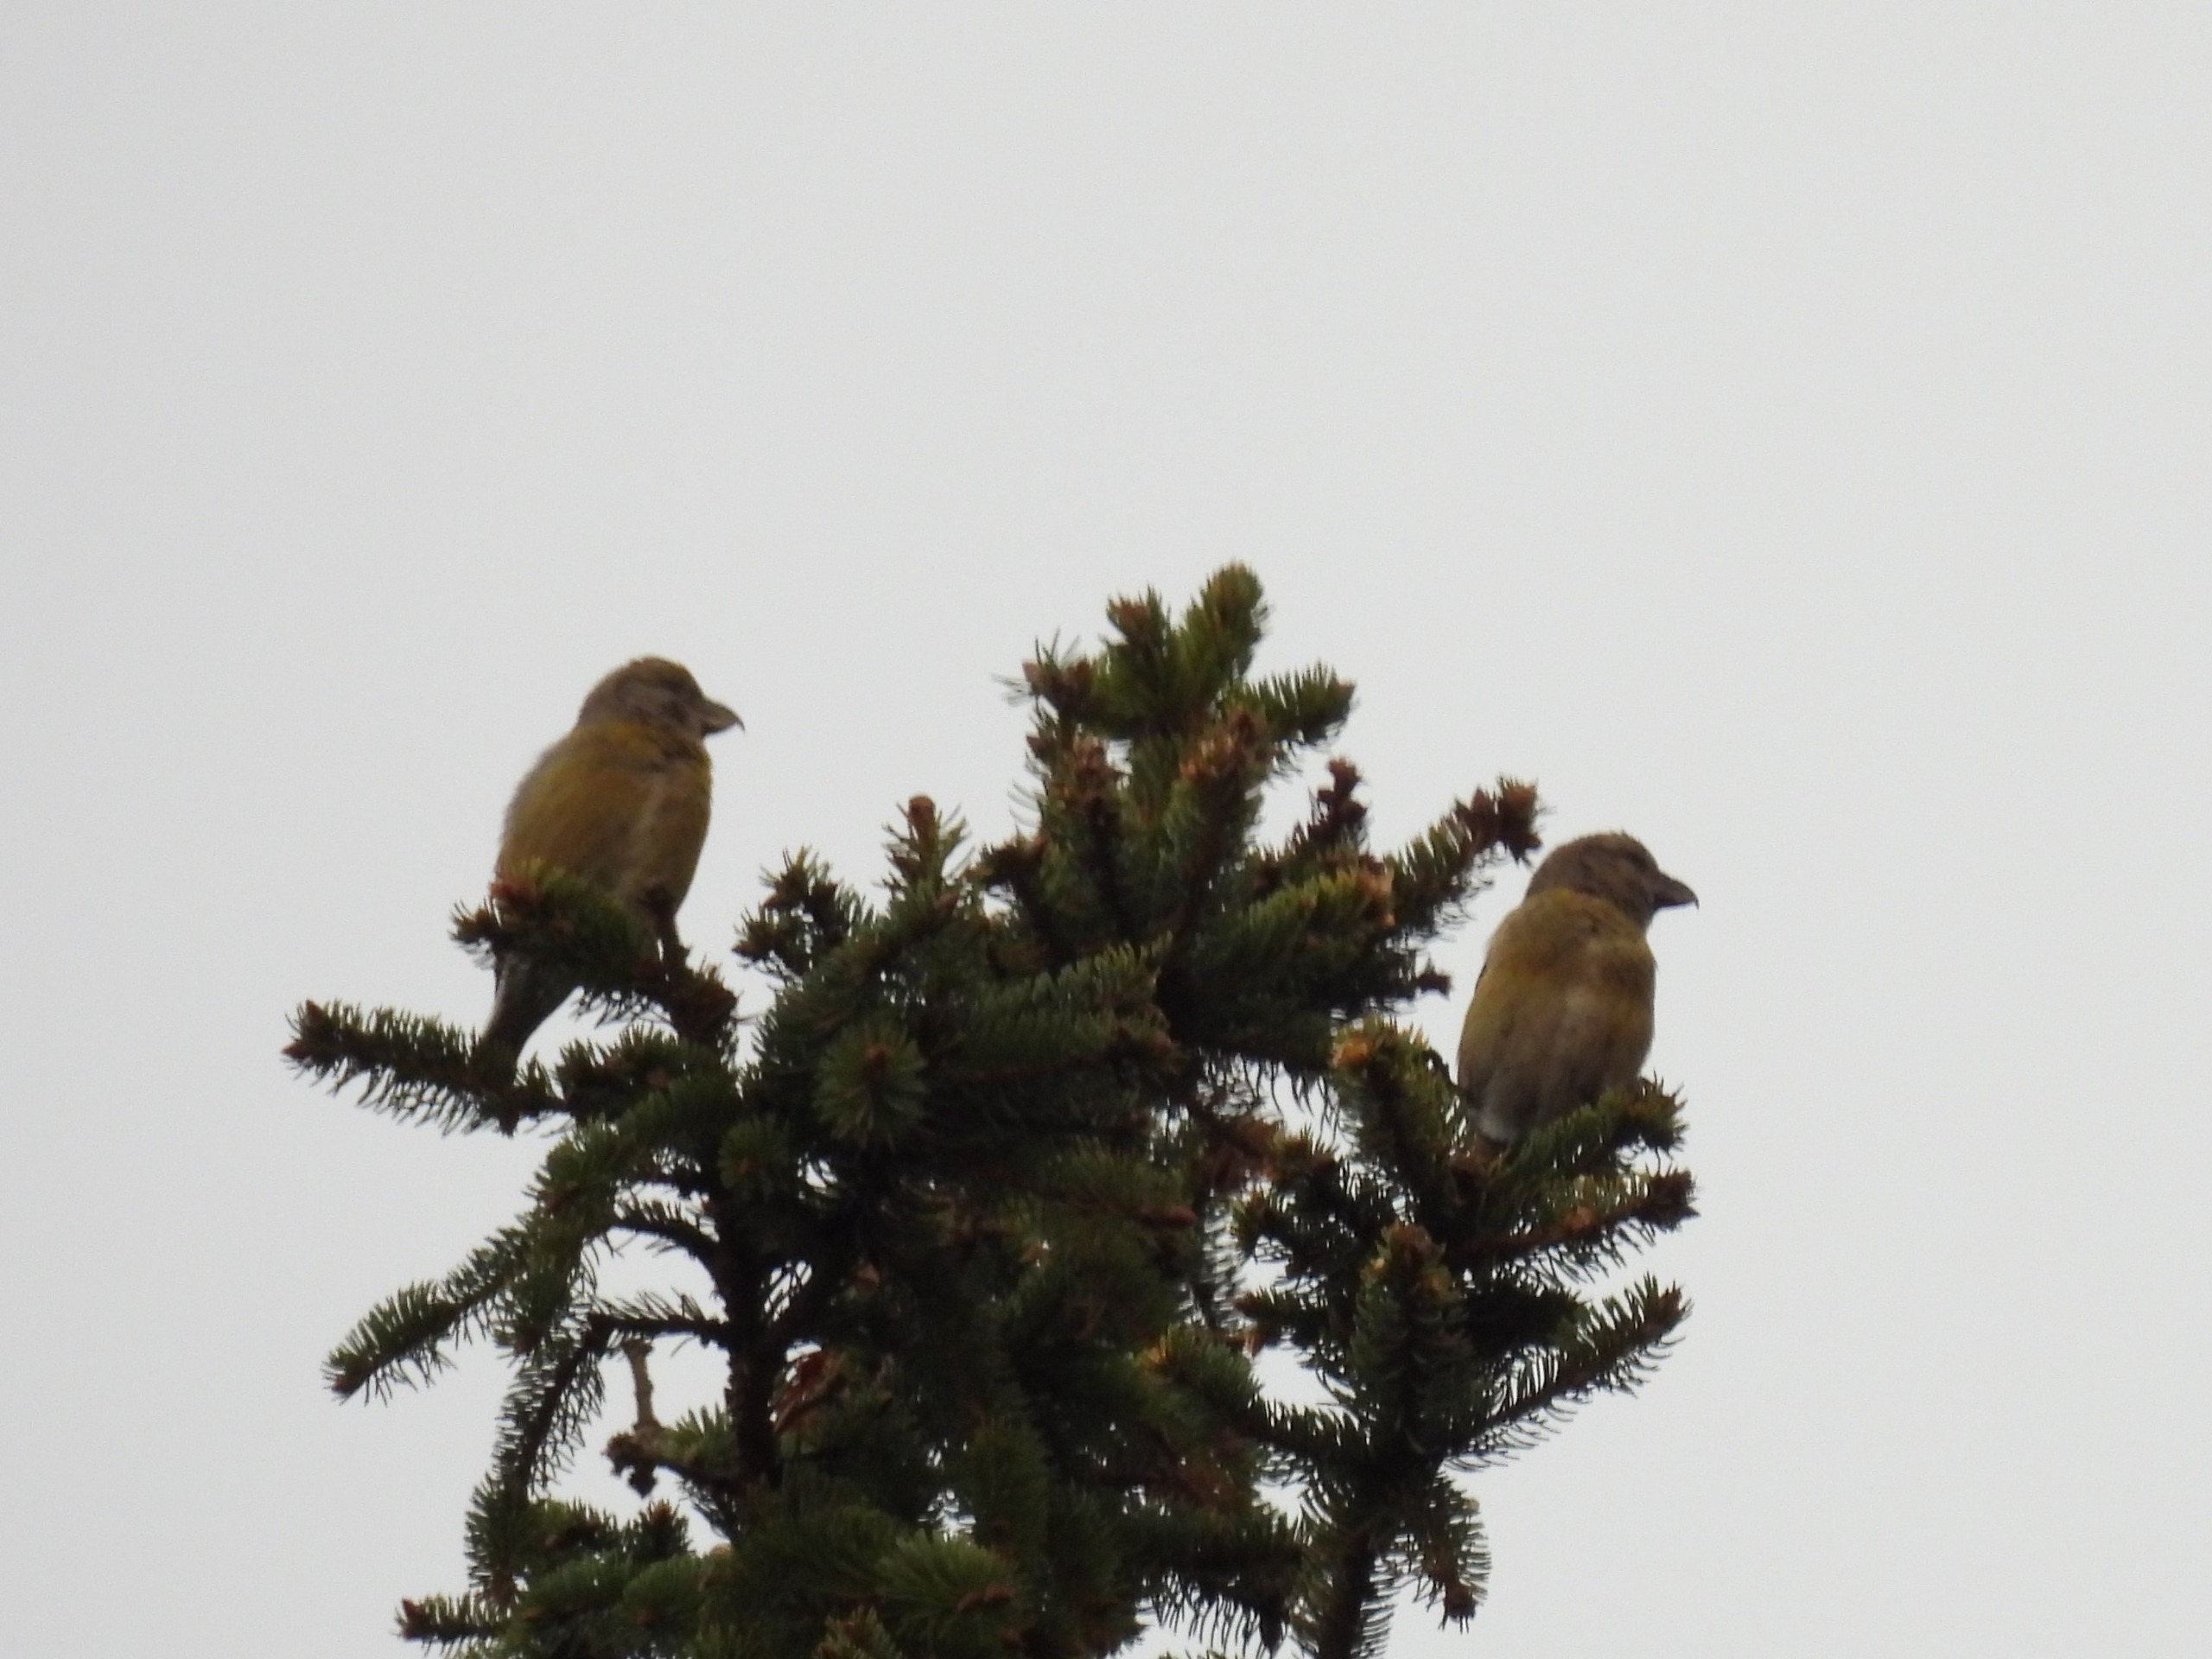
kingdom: Animalia
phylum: Chordata
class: Aves
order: Passeriformes
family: Fringillidae
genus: Loxia
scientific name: Loxia curvirostra
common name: Lille korsnæb
